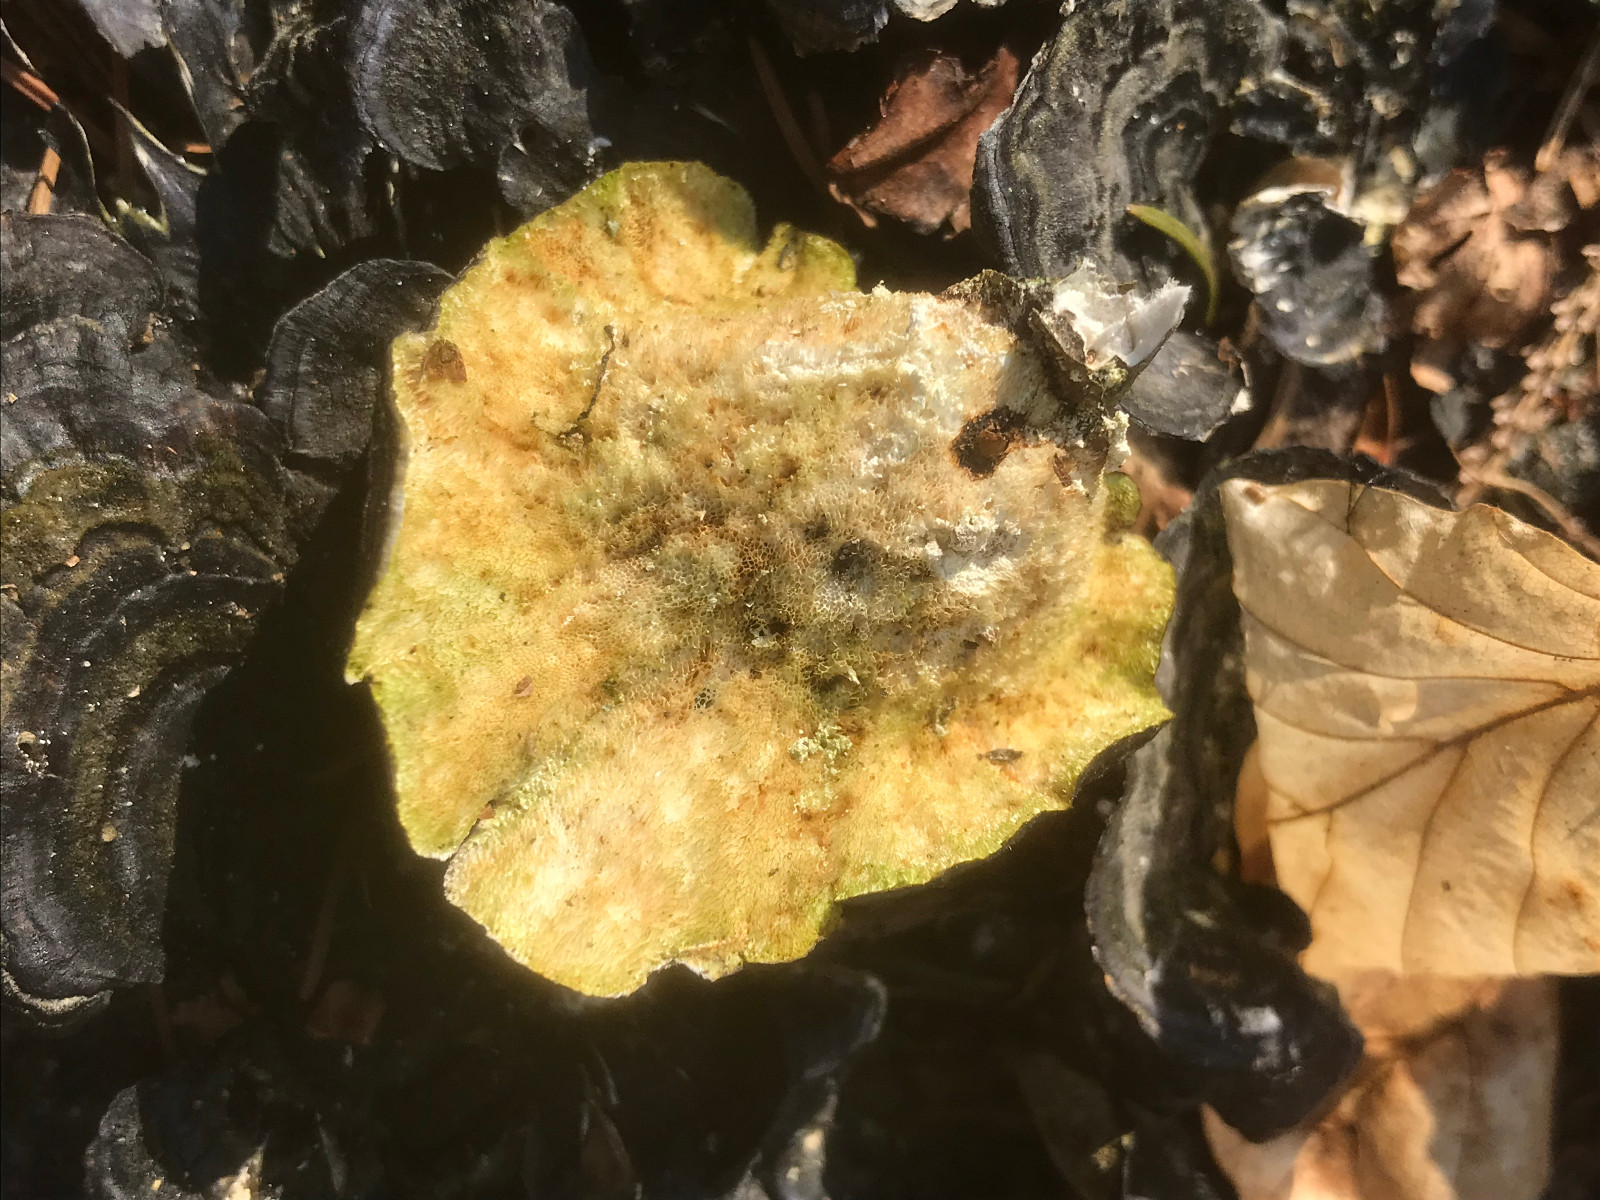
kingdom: Fungi
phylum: Basidiomycota
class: Agaricomycetes
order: Polyporales
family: Polyporaceae
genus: Trametes
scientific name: Trametes versicolor
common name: broget læderporesvamp
